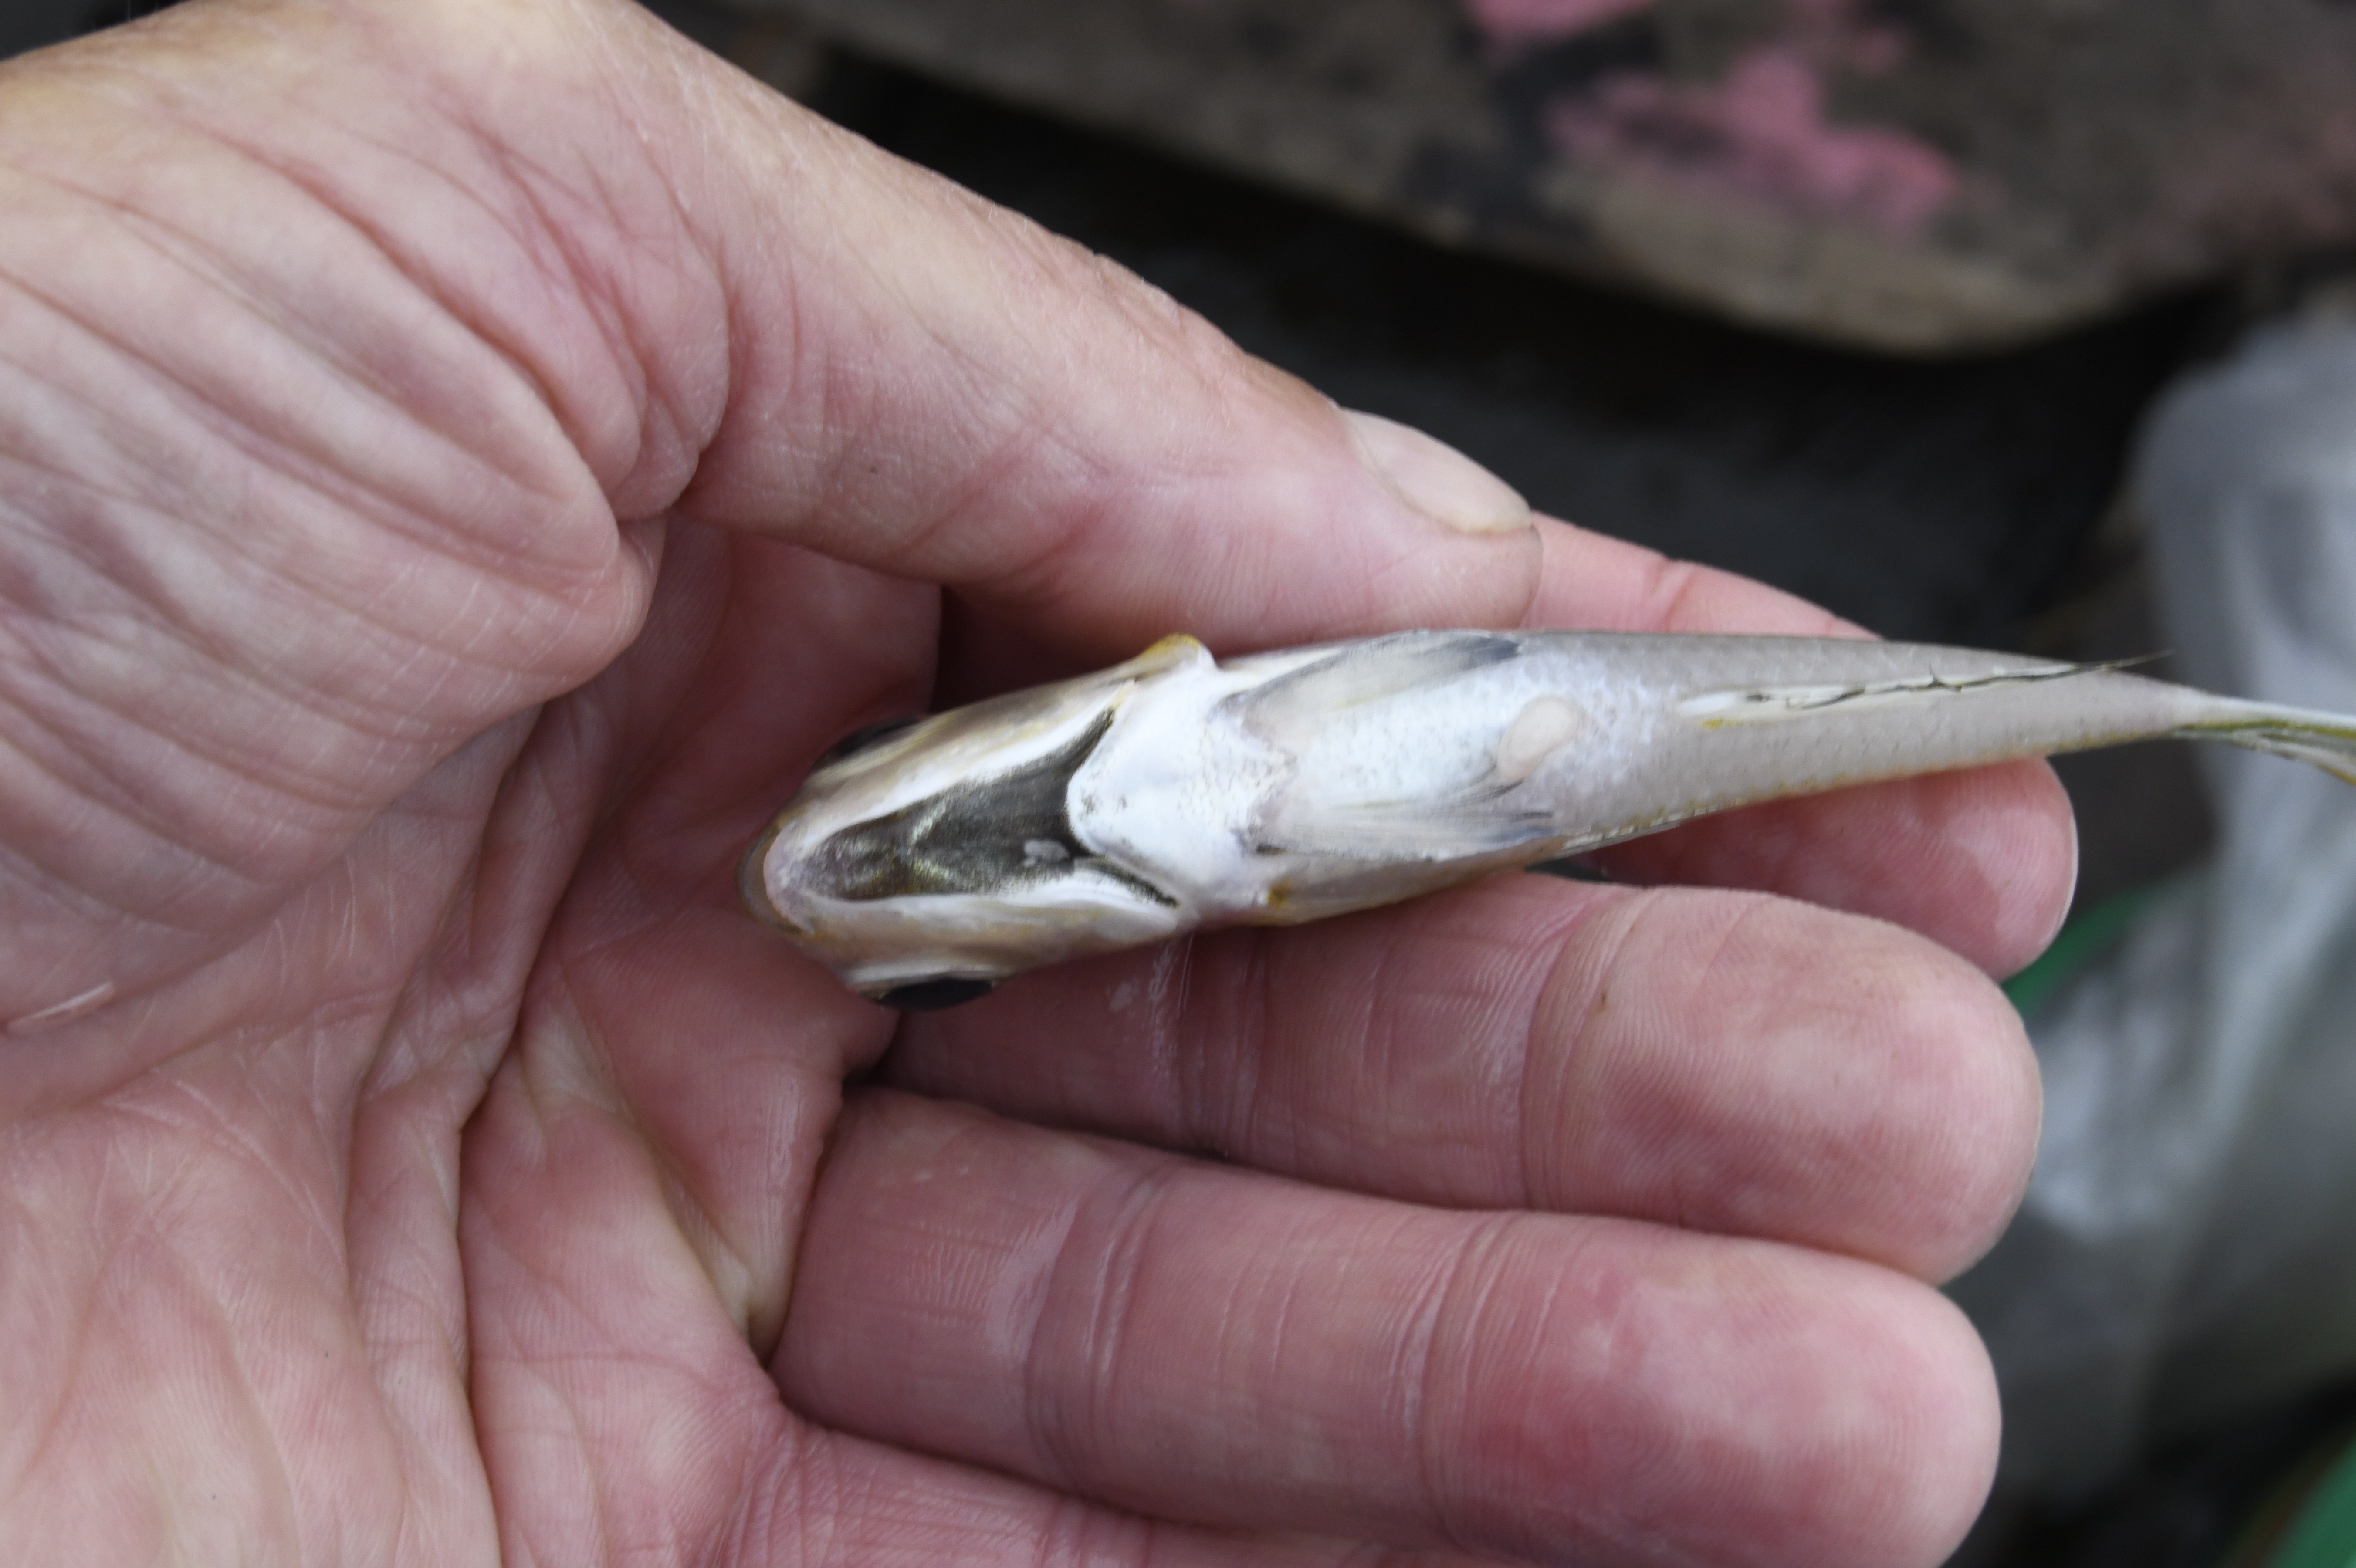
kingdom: Animalia
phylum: Chordata
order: Perciformes
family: Cichlidae
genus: Xenotilapia
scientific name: Xenotilapia bathyphila
